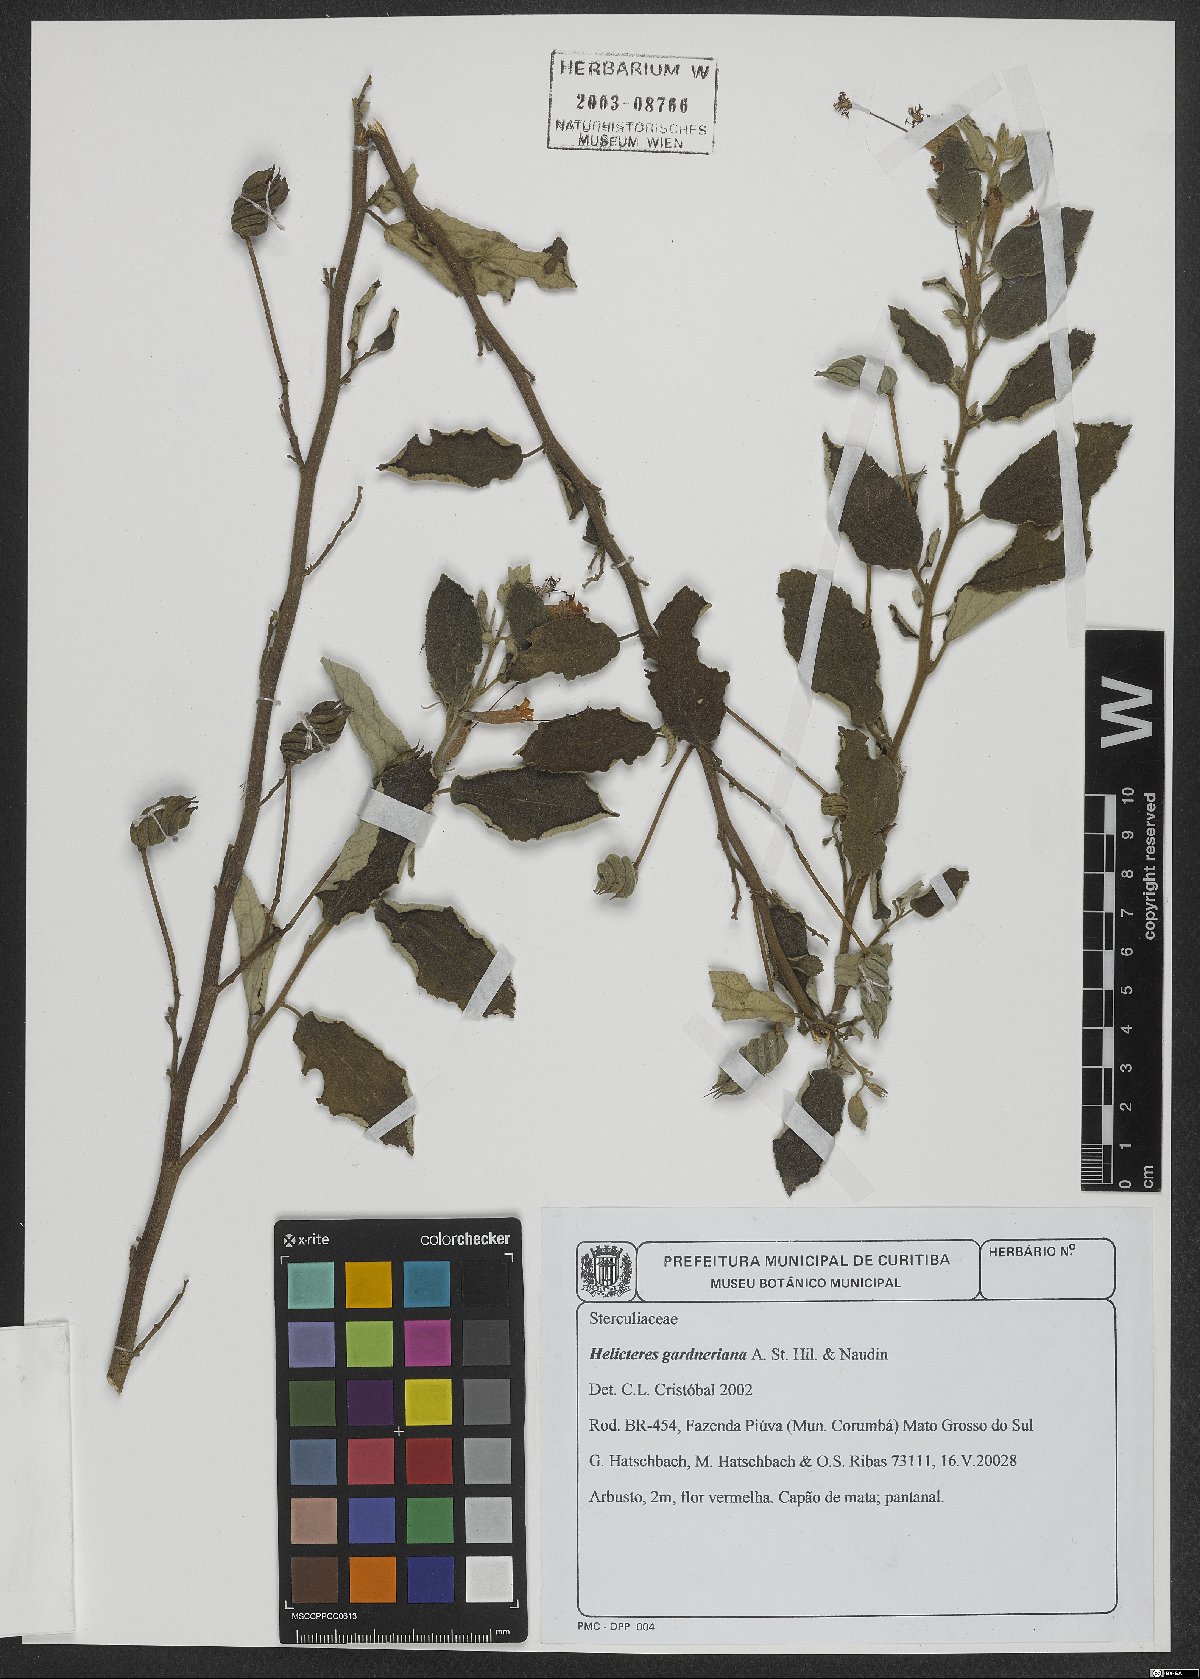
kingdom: Plantae
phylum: Tracheophyta
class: Magnoliopsida
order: Malvales
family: Malvaceae
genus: Helicteres
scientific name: Helicteres gardneriana
